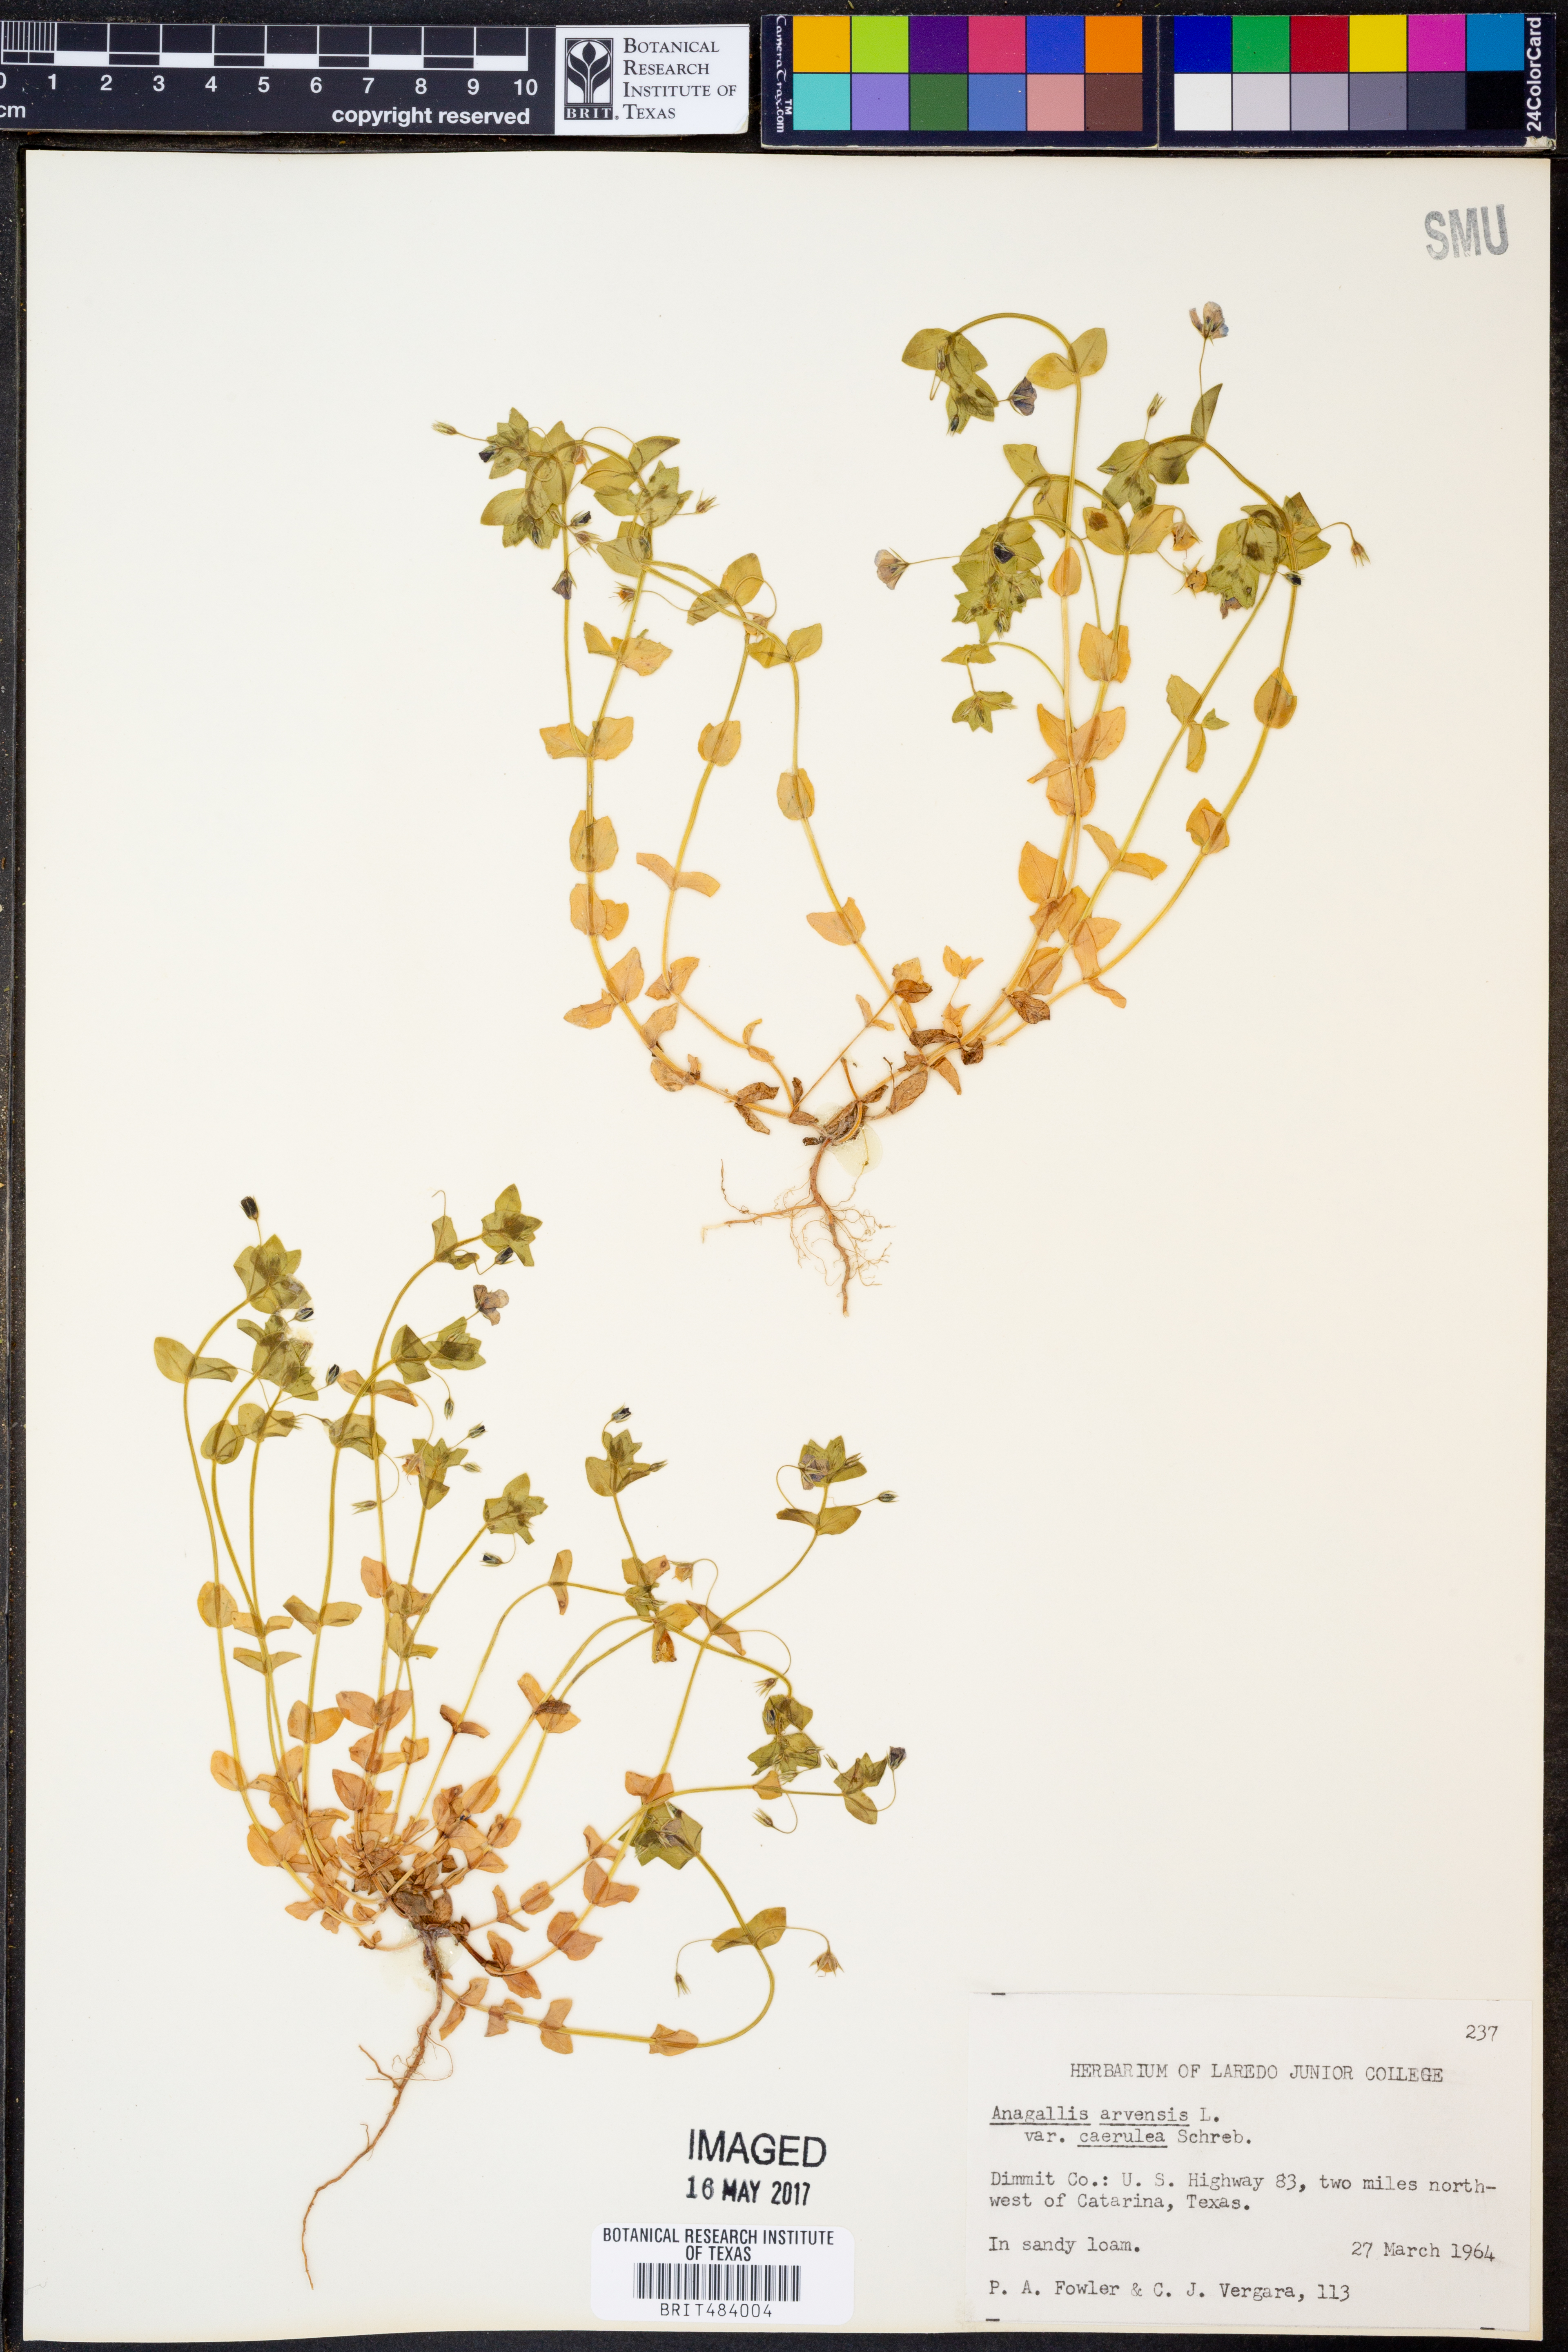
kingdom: Plantae
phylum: Tracheophyta
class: Magnoliopsida
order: Ericales
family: Primulaceae
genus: Lysimachia
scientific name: Lysimachia foemina
